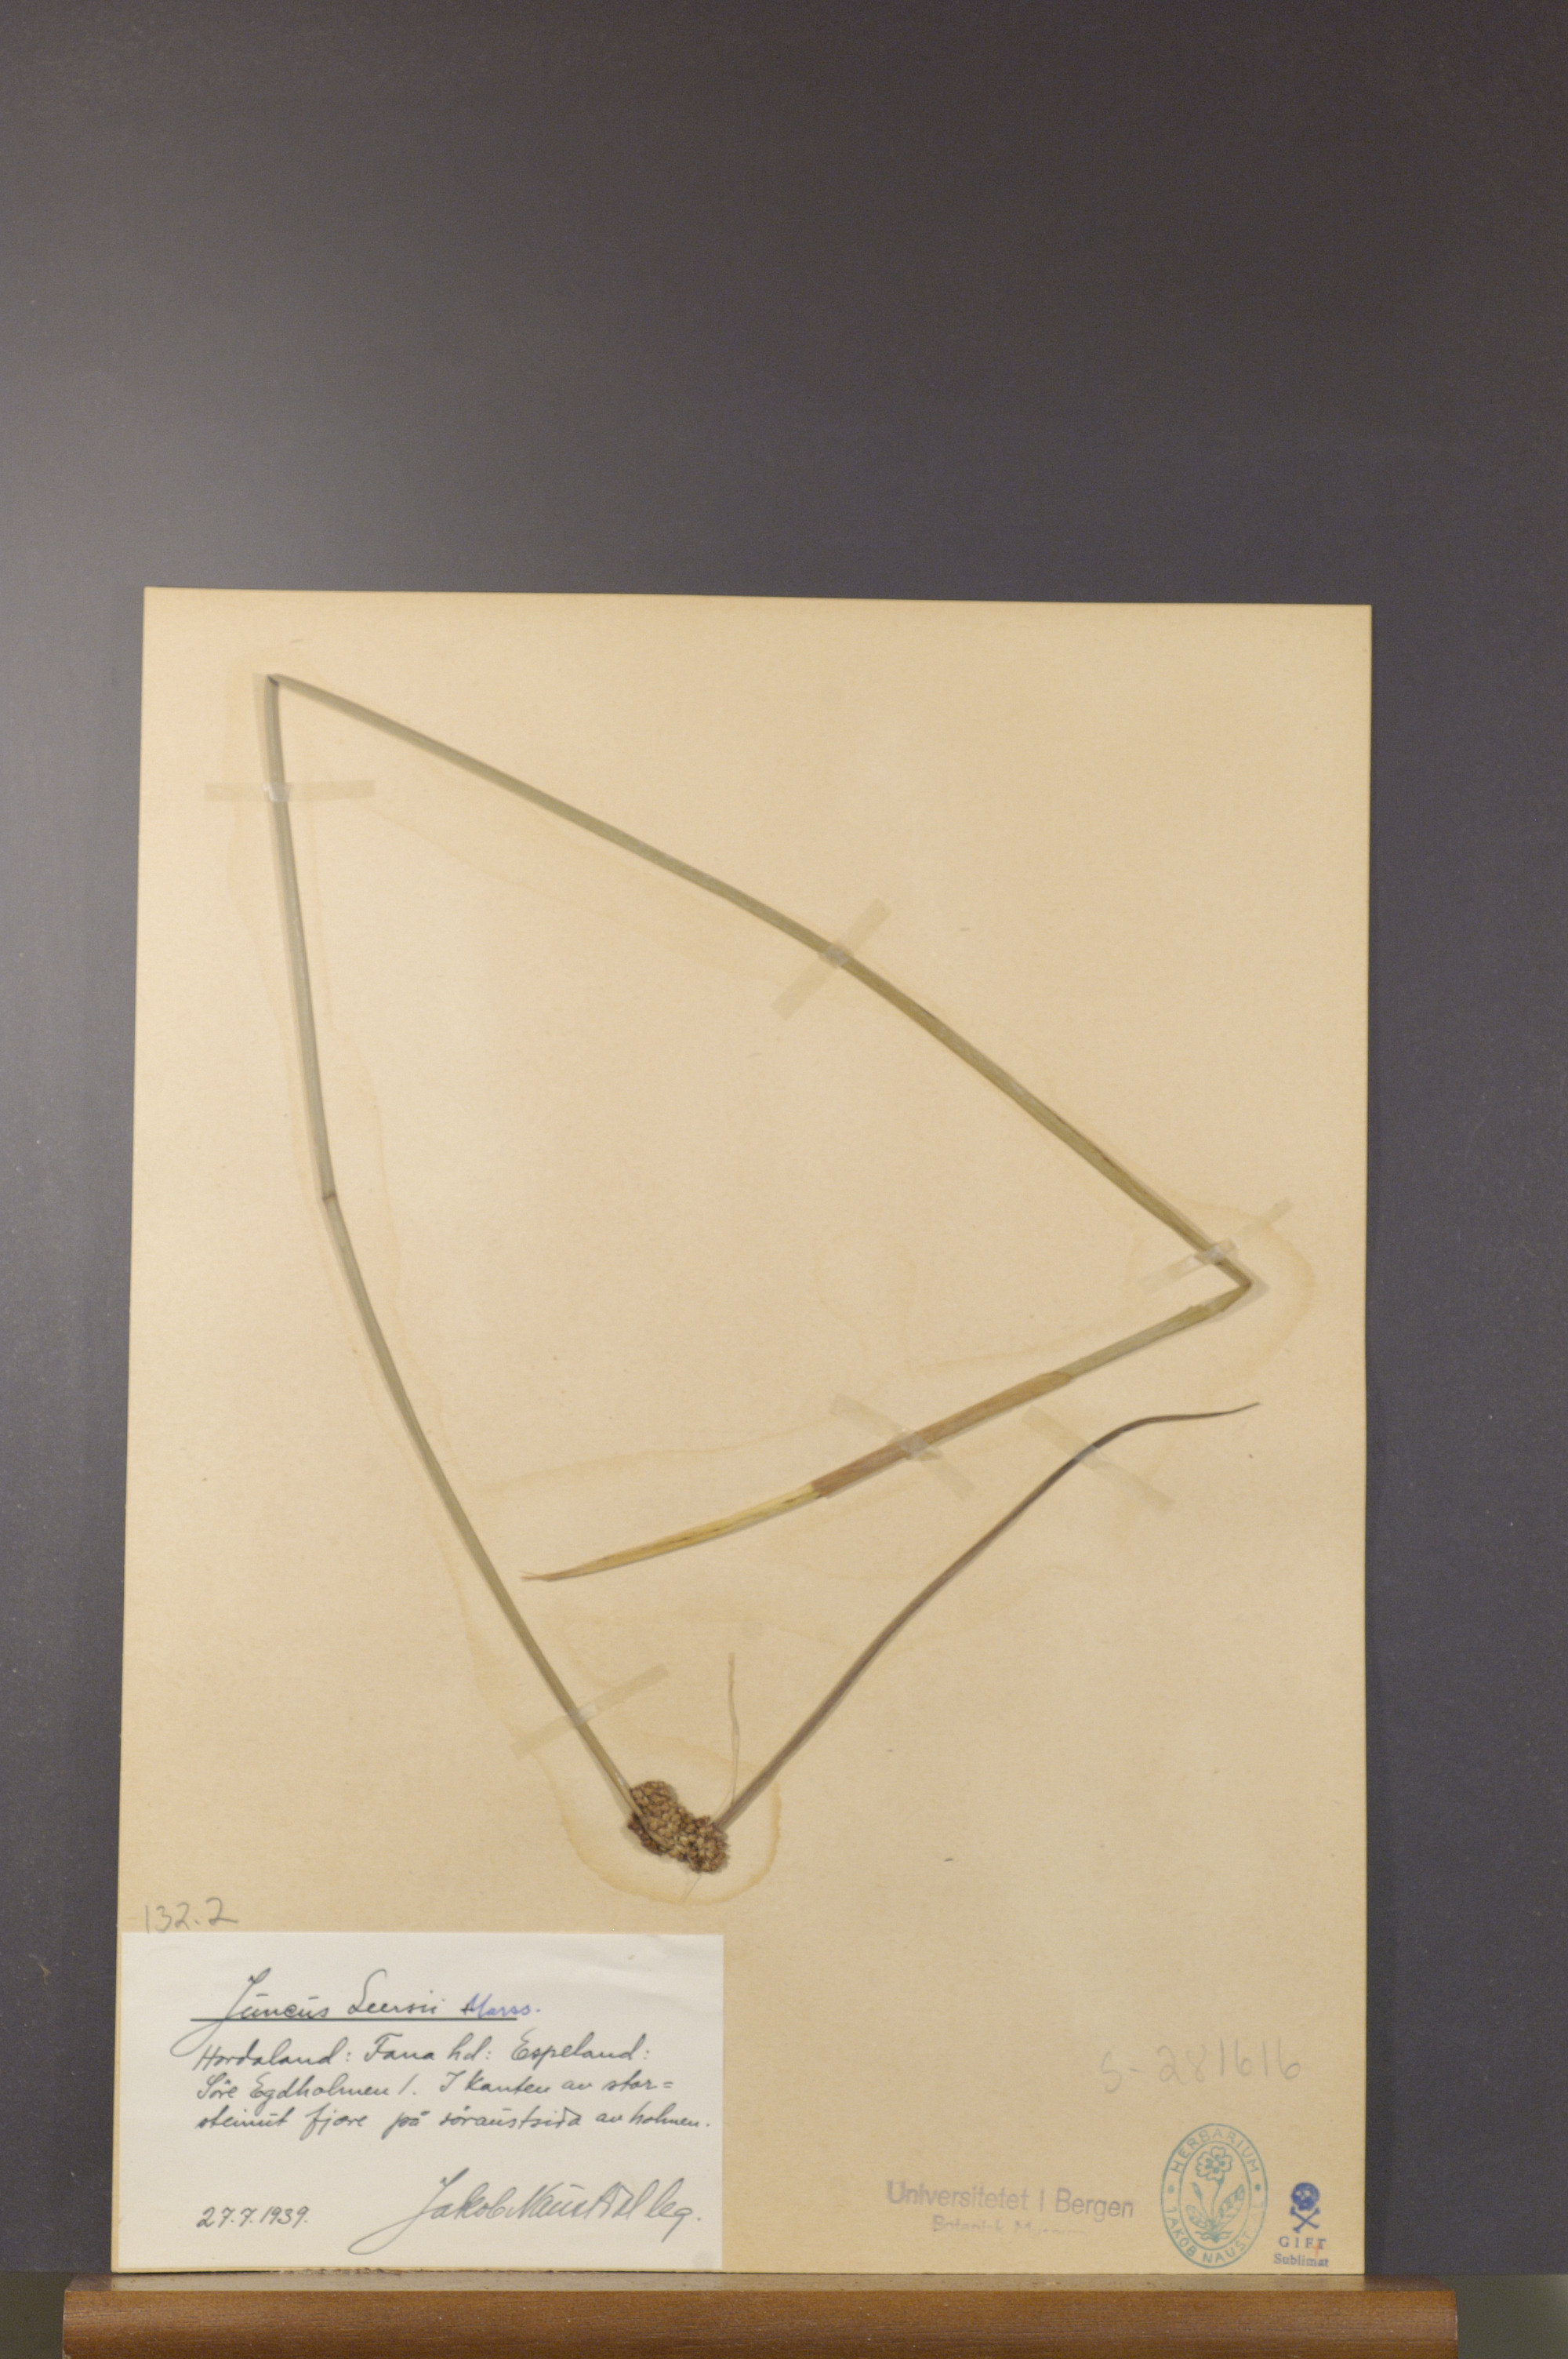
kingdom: Plantae
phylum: Tracheophyta
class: Liliopsida
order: Poales
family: Juncaceae
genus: Juncus
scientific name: Juncus conglomeratus
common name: Compact rush
